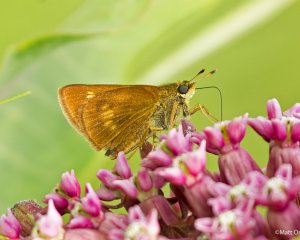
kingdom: Animalia
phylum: Arthropoda
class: Insecta
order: Lepidoptera
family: Hesperiidae
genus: Euphyes
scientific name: Euphyes conspicua
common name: Black Dash
